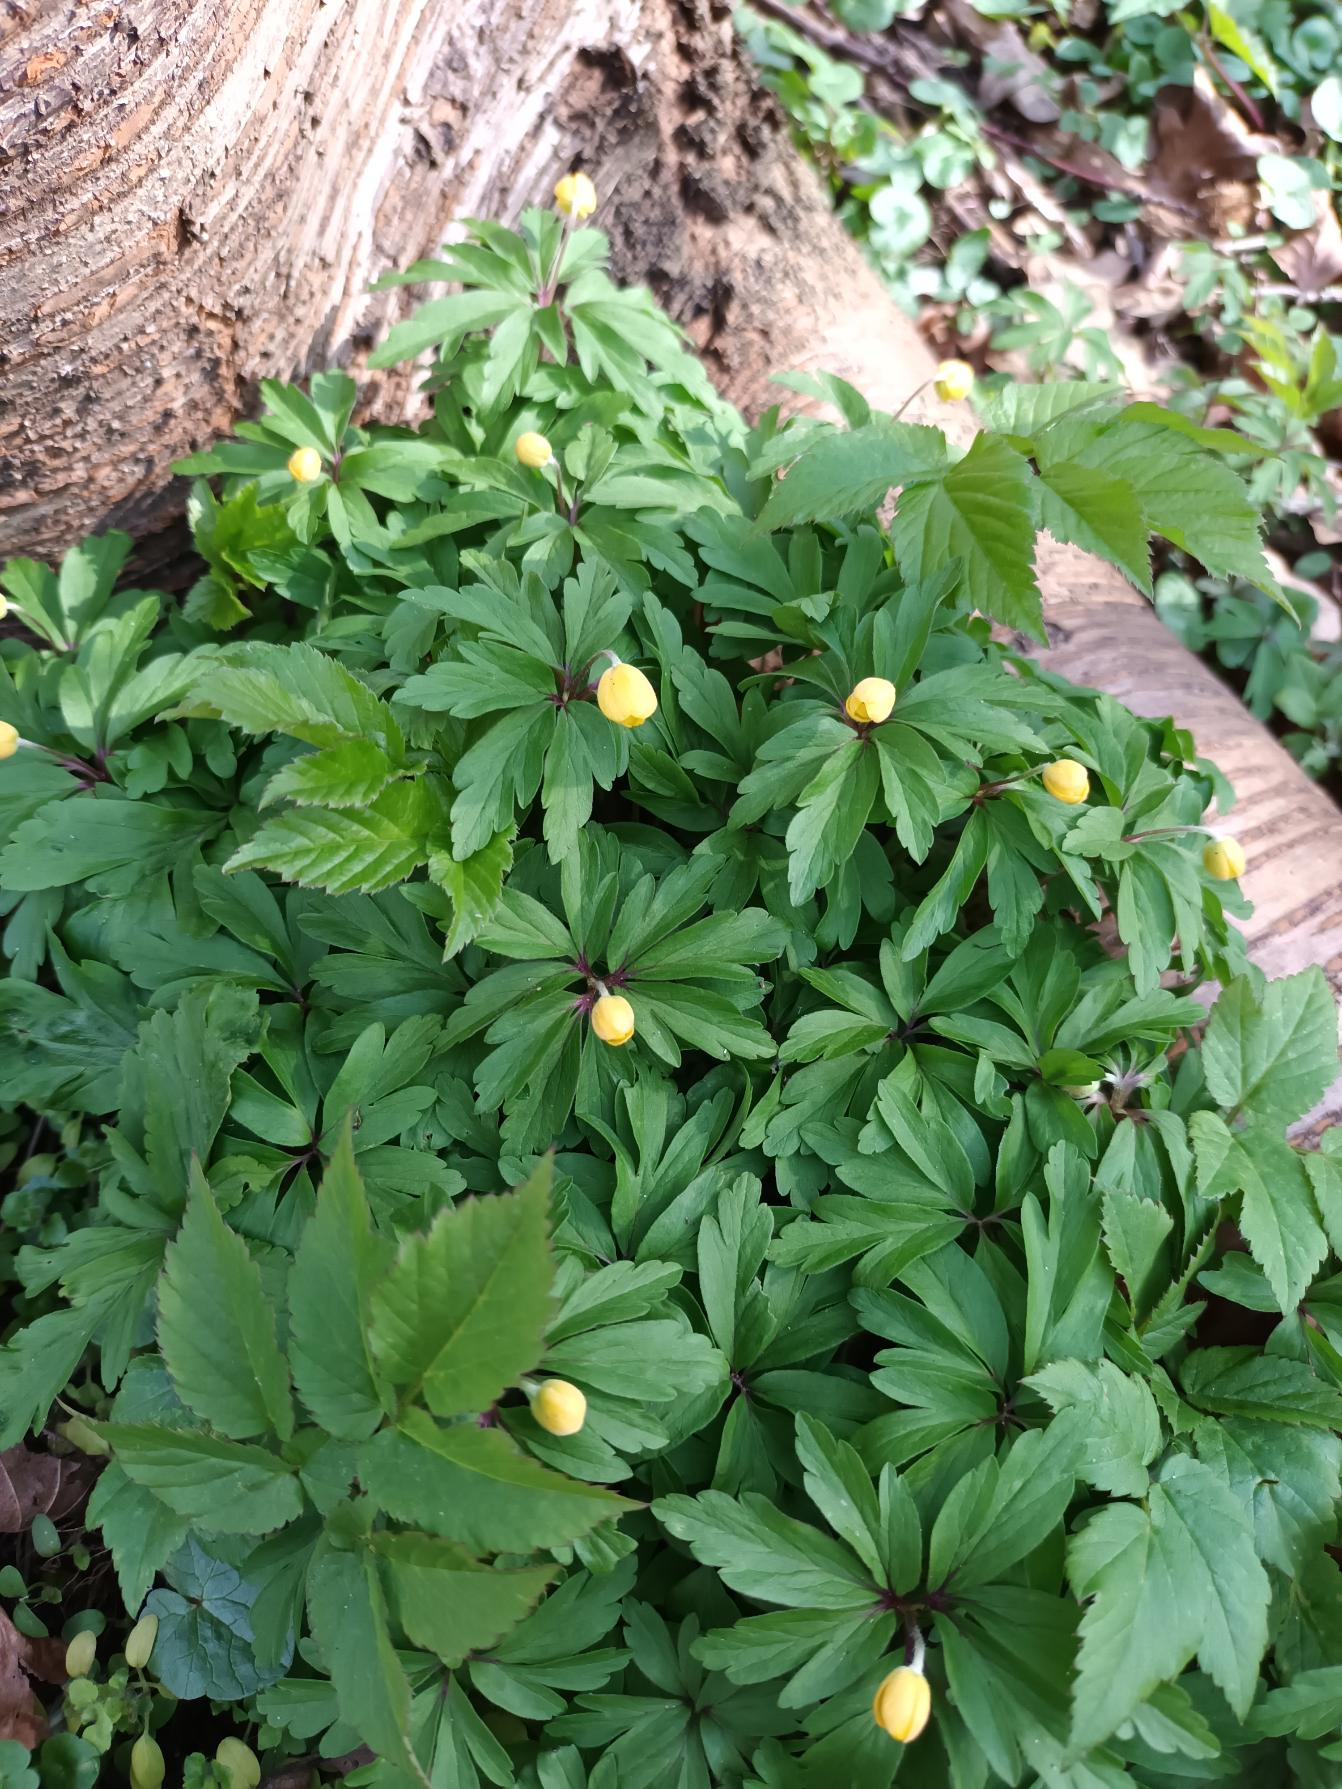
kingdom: Plantae
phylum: Tracheophyta
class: Magnoliopsida
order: Ranunculales
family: Ranunculaceae
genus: Anemone
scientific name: Anemone ranunculoides
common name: Gul anemone
